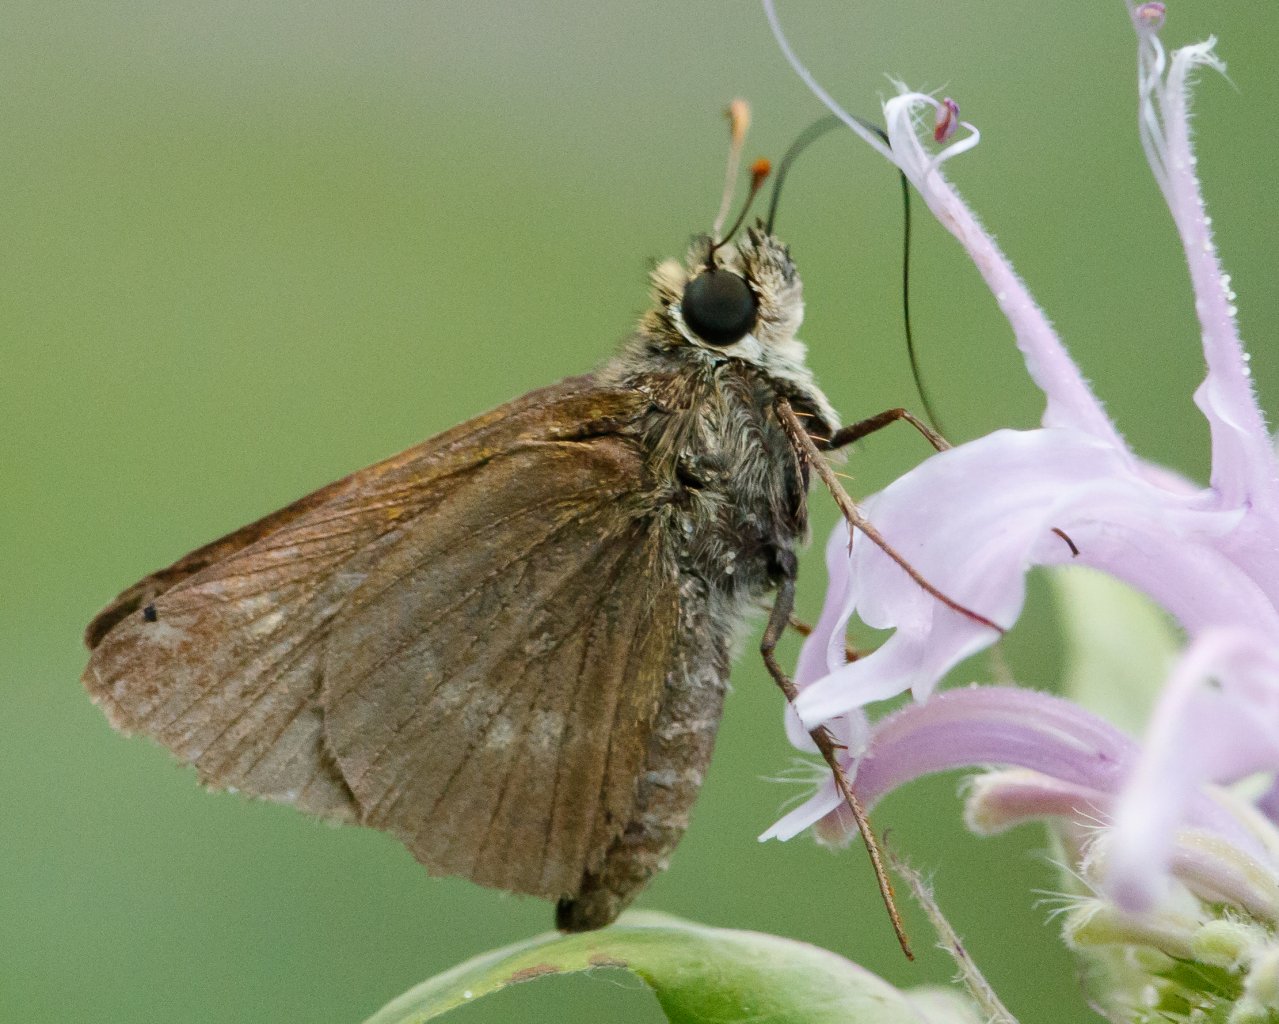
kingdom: Animalia
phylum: Arthropoda
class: Insecta
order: Lepidoptera
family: Hesperiidae
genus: Polites
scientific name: Polites
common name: Crossline Skipper
